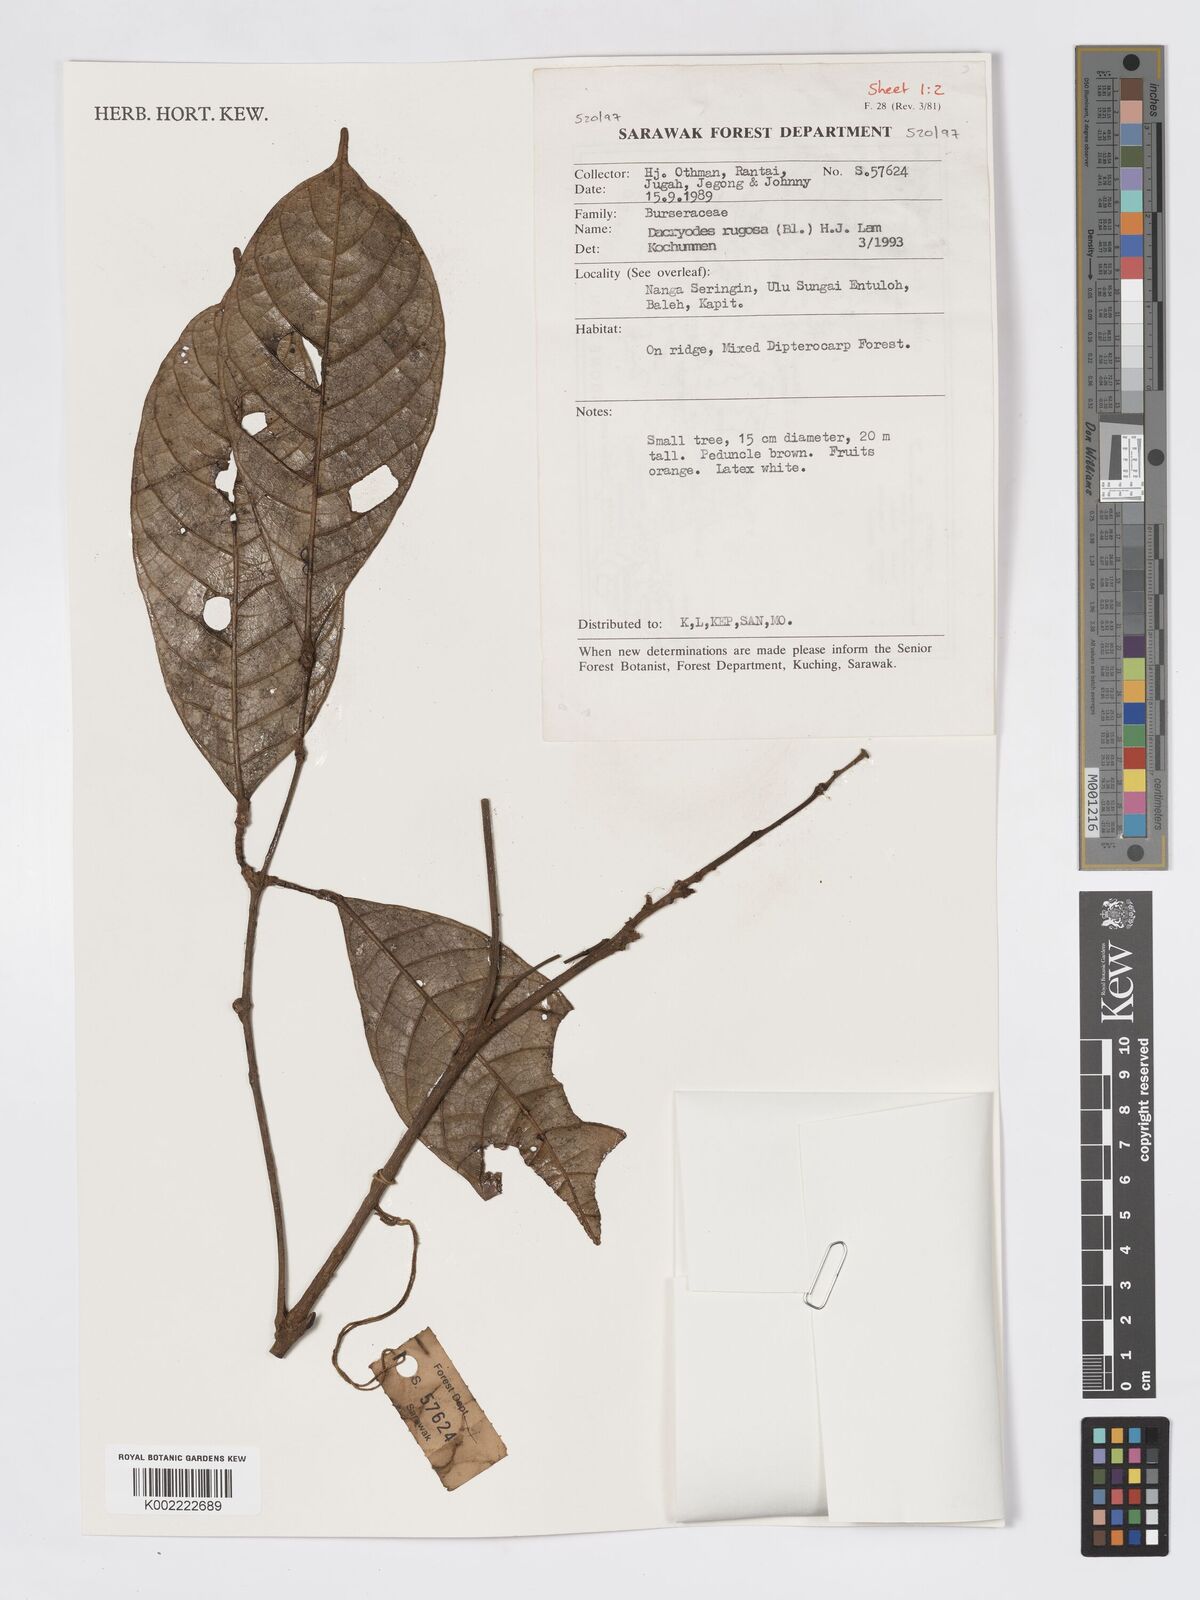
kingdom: Plantae
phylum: Tracheophyta
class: Magnoliopsida
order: Sapindales
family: Burseraceae
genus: Dacryodes
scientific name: Dacryodes rugosa
